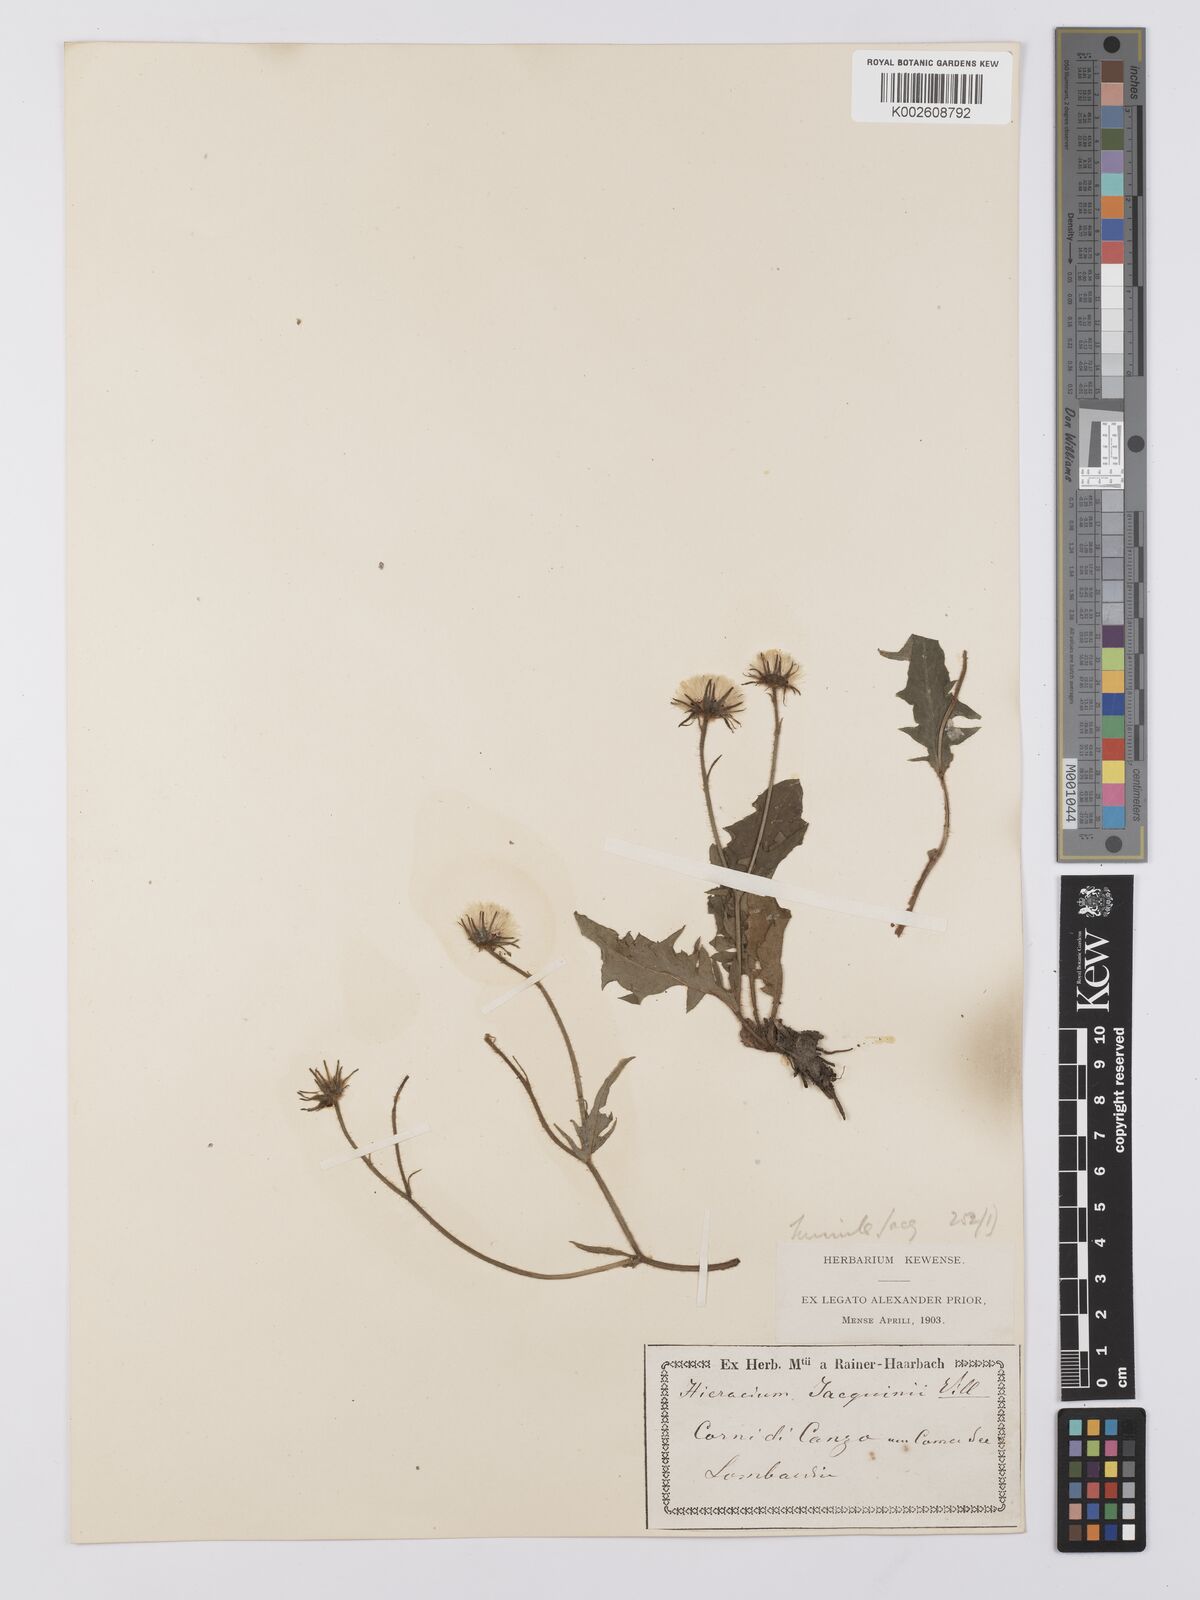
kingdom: Plantae
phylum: Tracheophyta
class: Magnoliopsida
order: Asterales
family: Asteraceae
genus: Hieracium
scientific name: Hieracium humile
